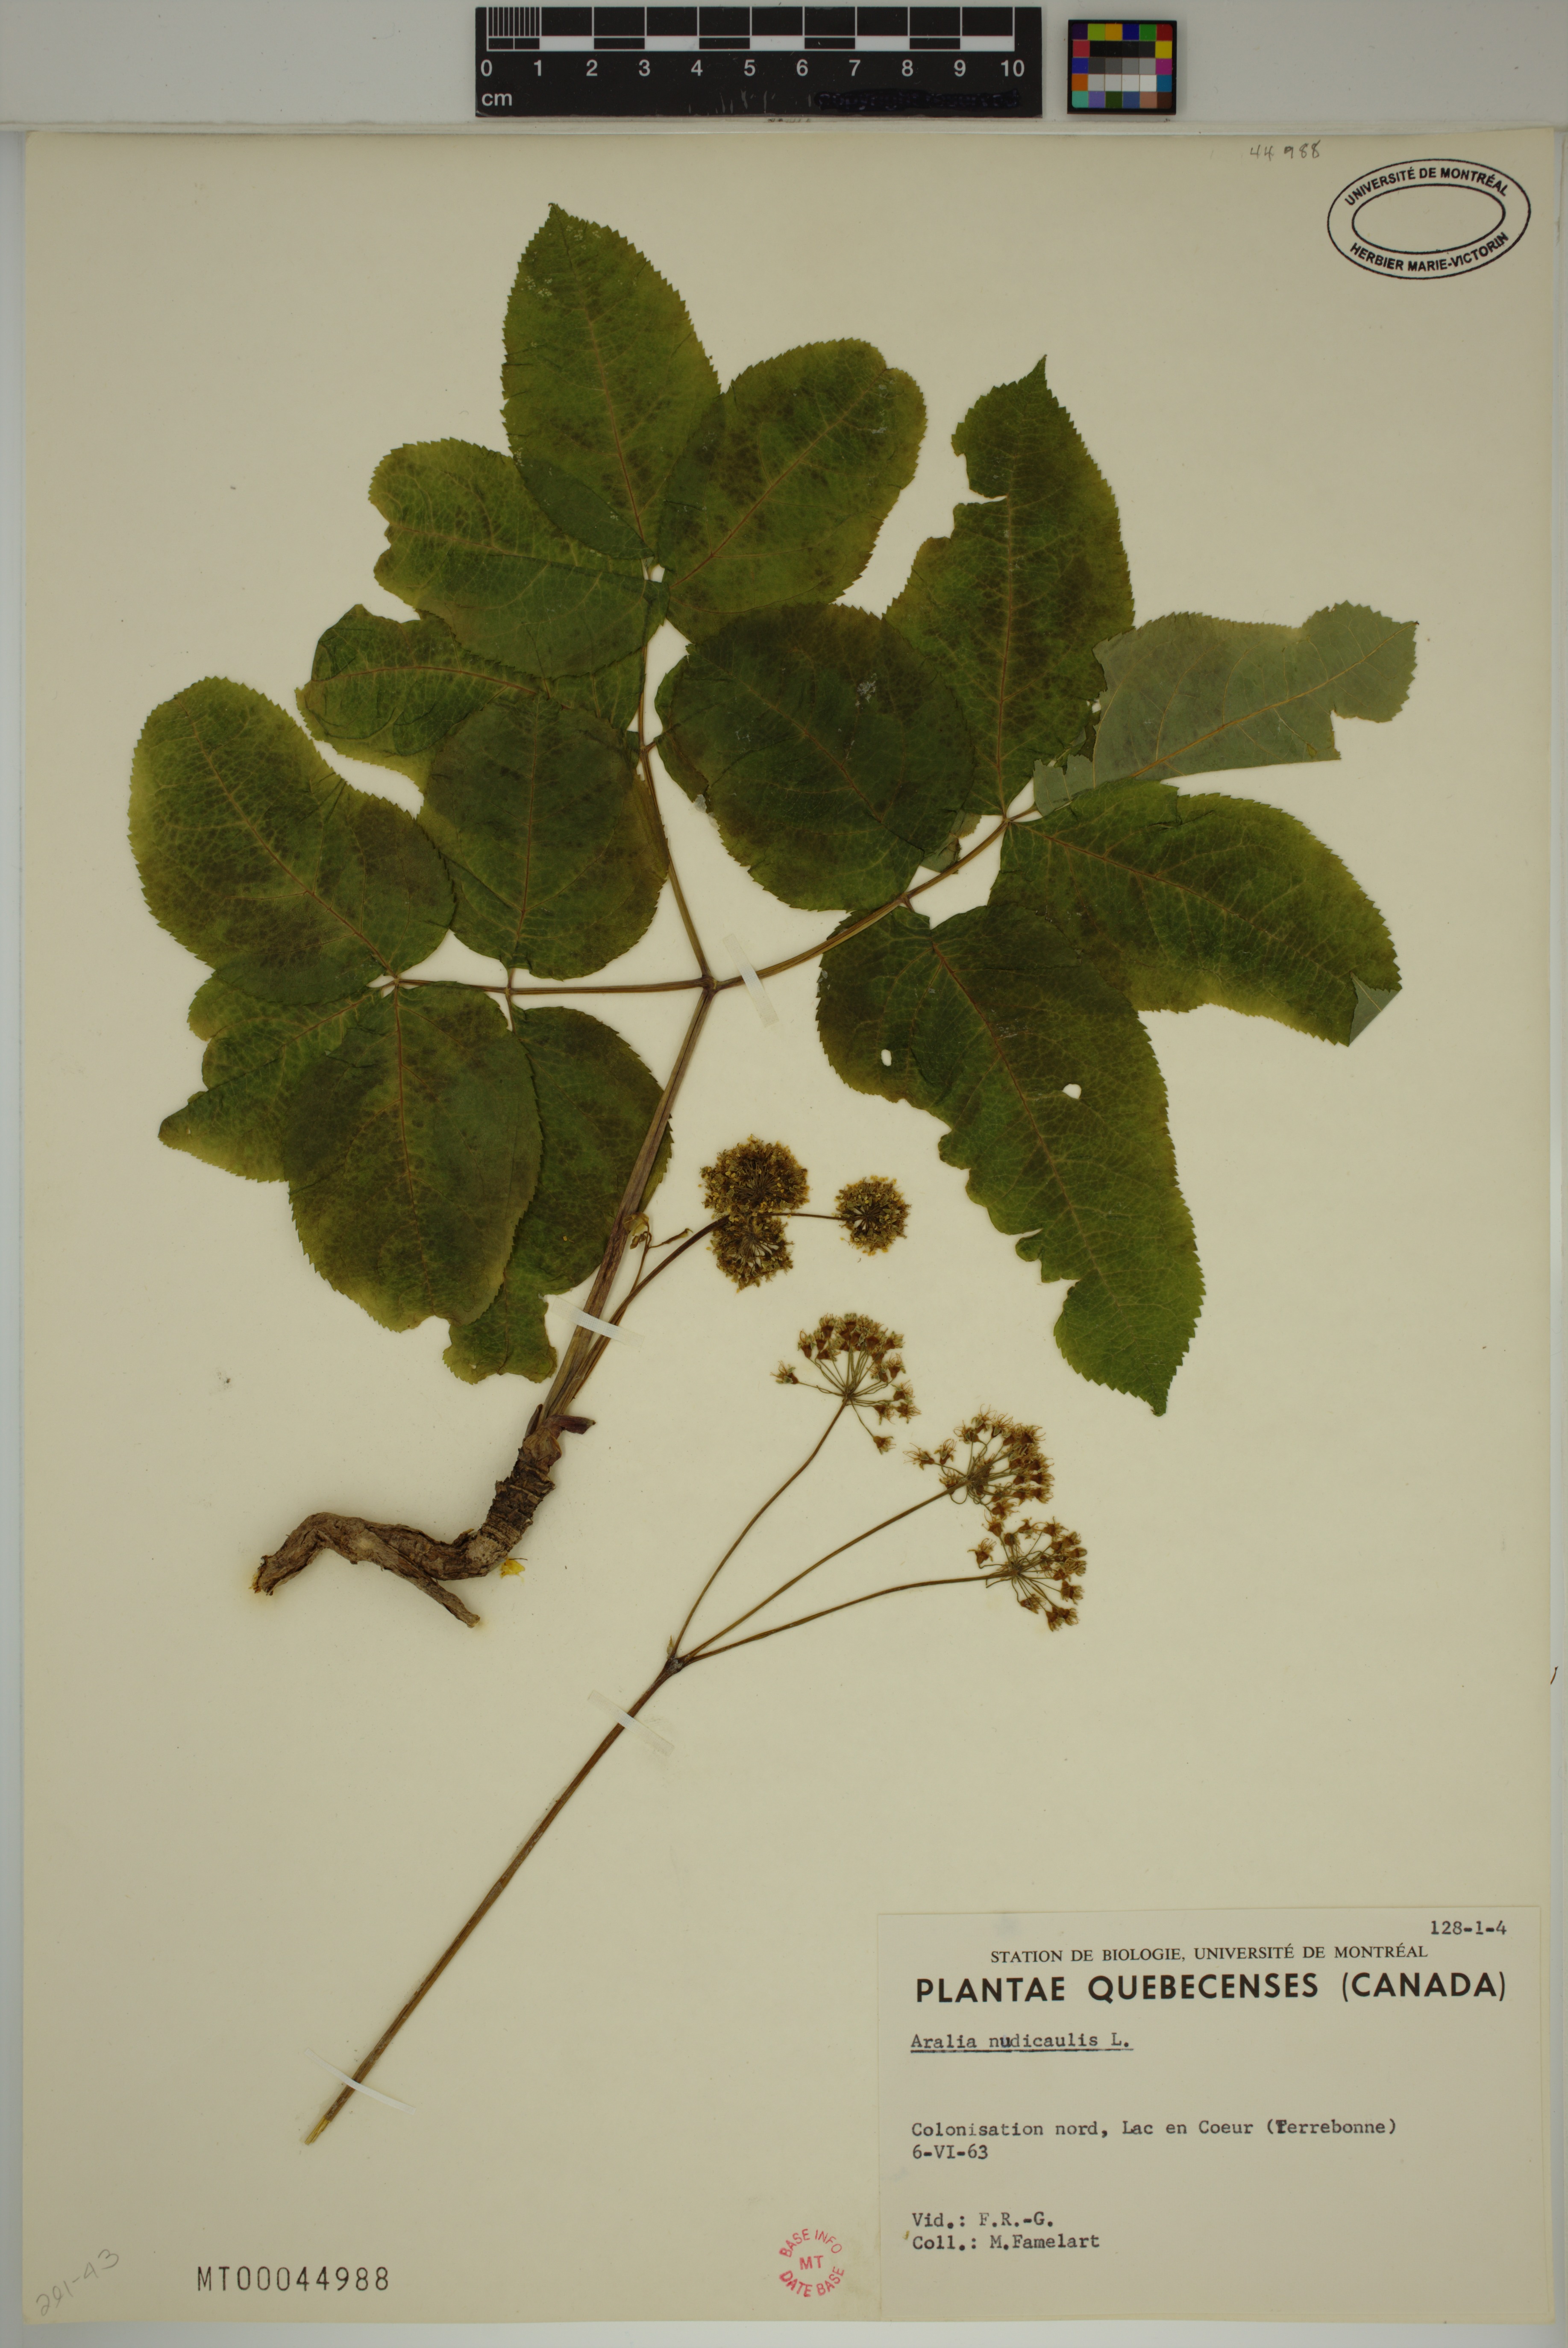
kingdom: Plantae
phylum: Tracheophyta
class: Magnoliopsida
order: Apiales
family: Araliaceae
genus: Aralia
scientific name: Aralia nudicaulis
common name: Wild sarsaparilla
